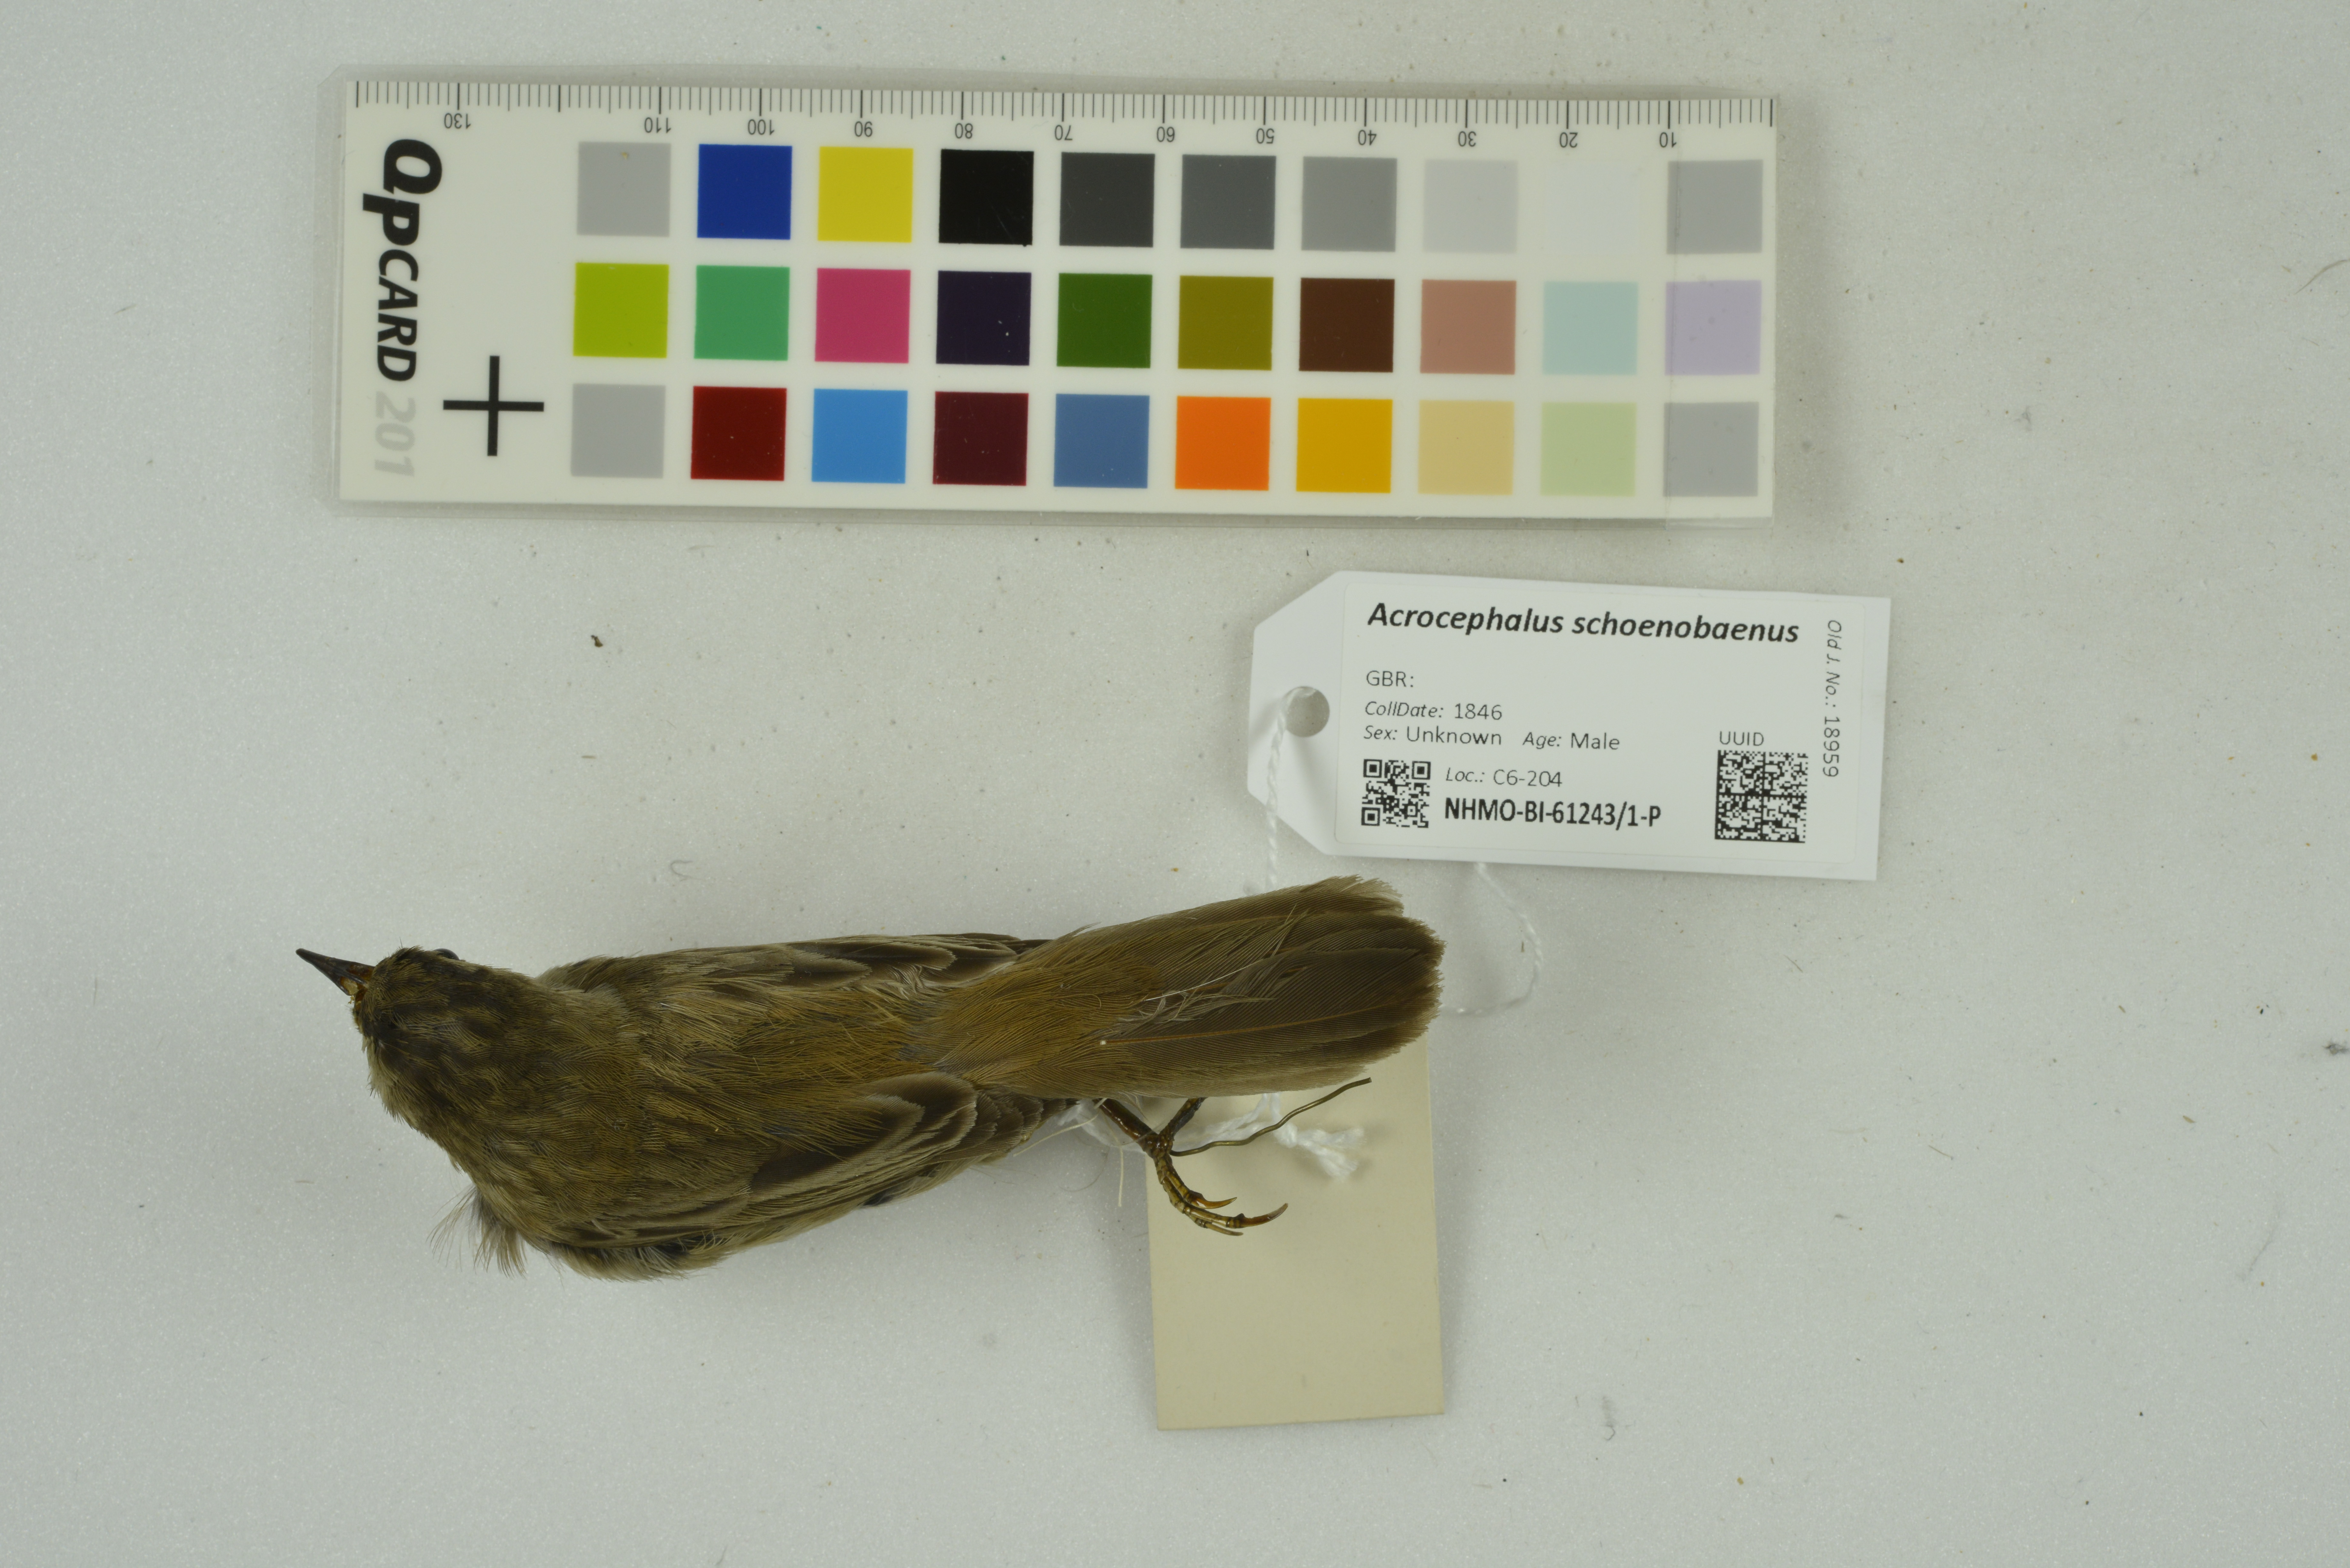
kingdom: Animalia
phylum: Chordata
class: Aves
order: Passeriformes
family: Acrocephalidae
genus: Acrocephalus
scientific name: Acrocephalus schoenobaenus
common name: Sedge warbler
